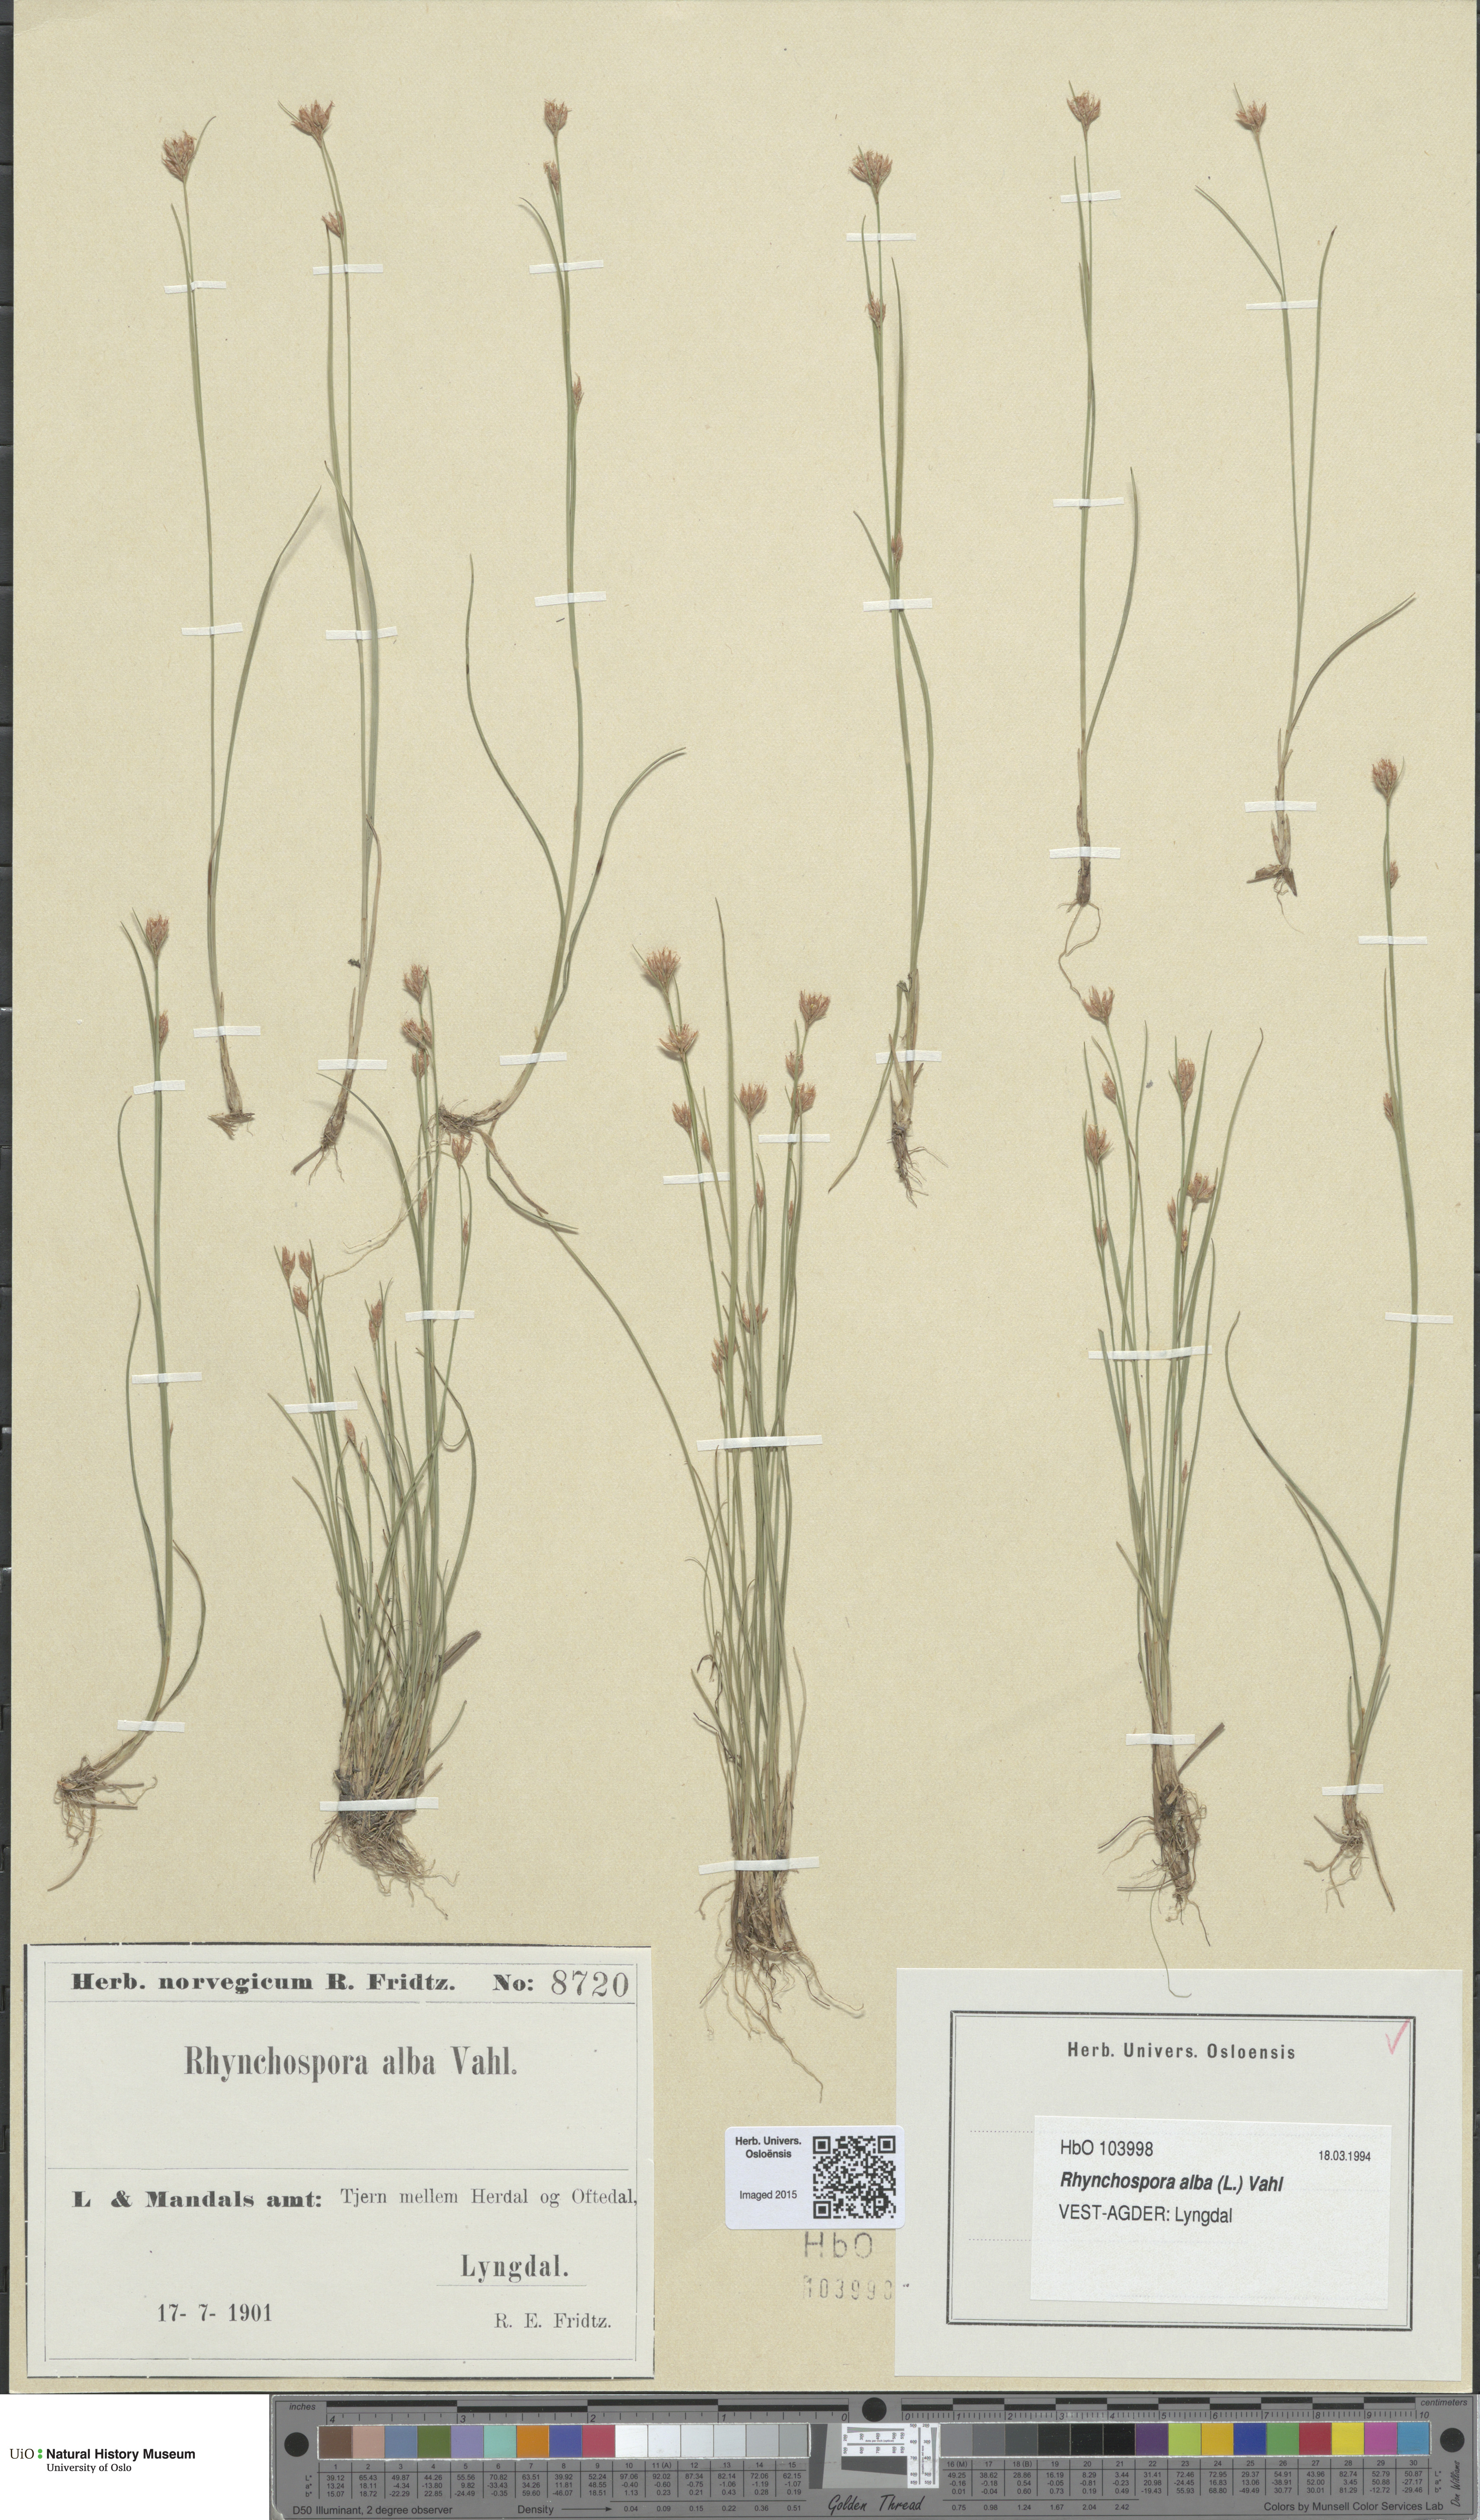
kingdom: Plantae
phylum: Tracheophyta
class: Liliopsida
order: Poales
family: Cyperaceae
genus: Rhynchospora
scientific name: Rhynchospora alba
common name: White beak-sedge
